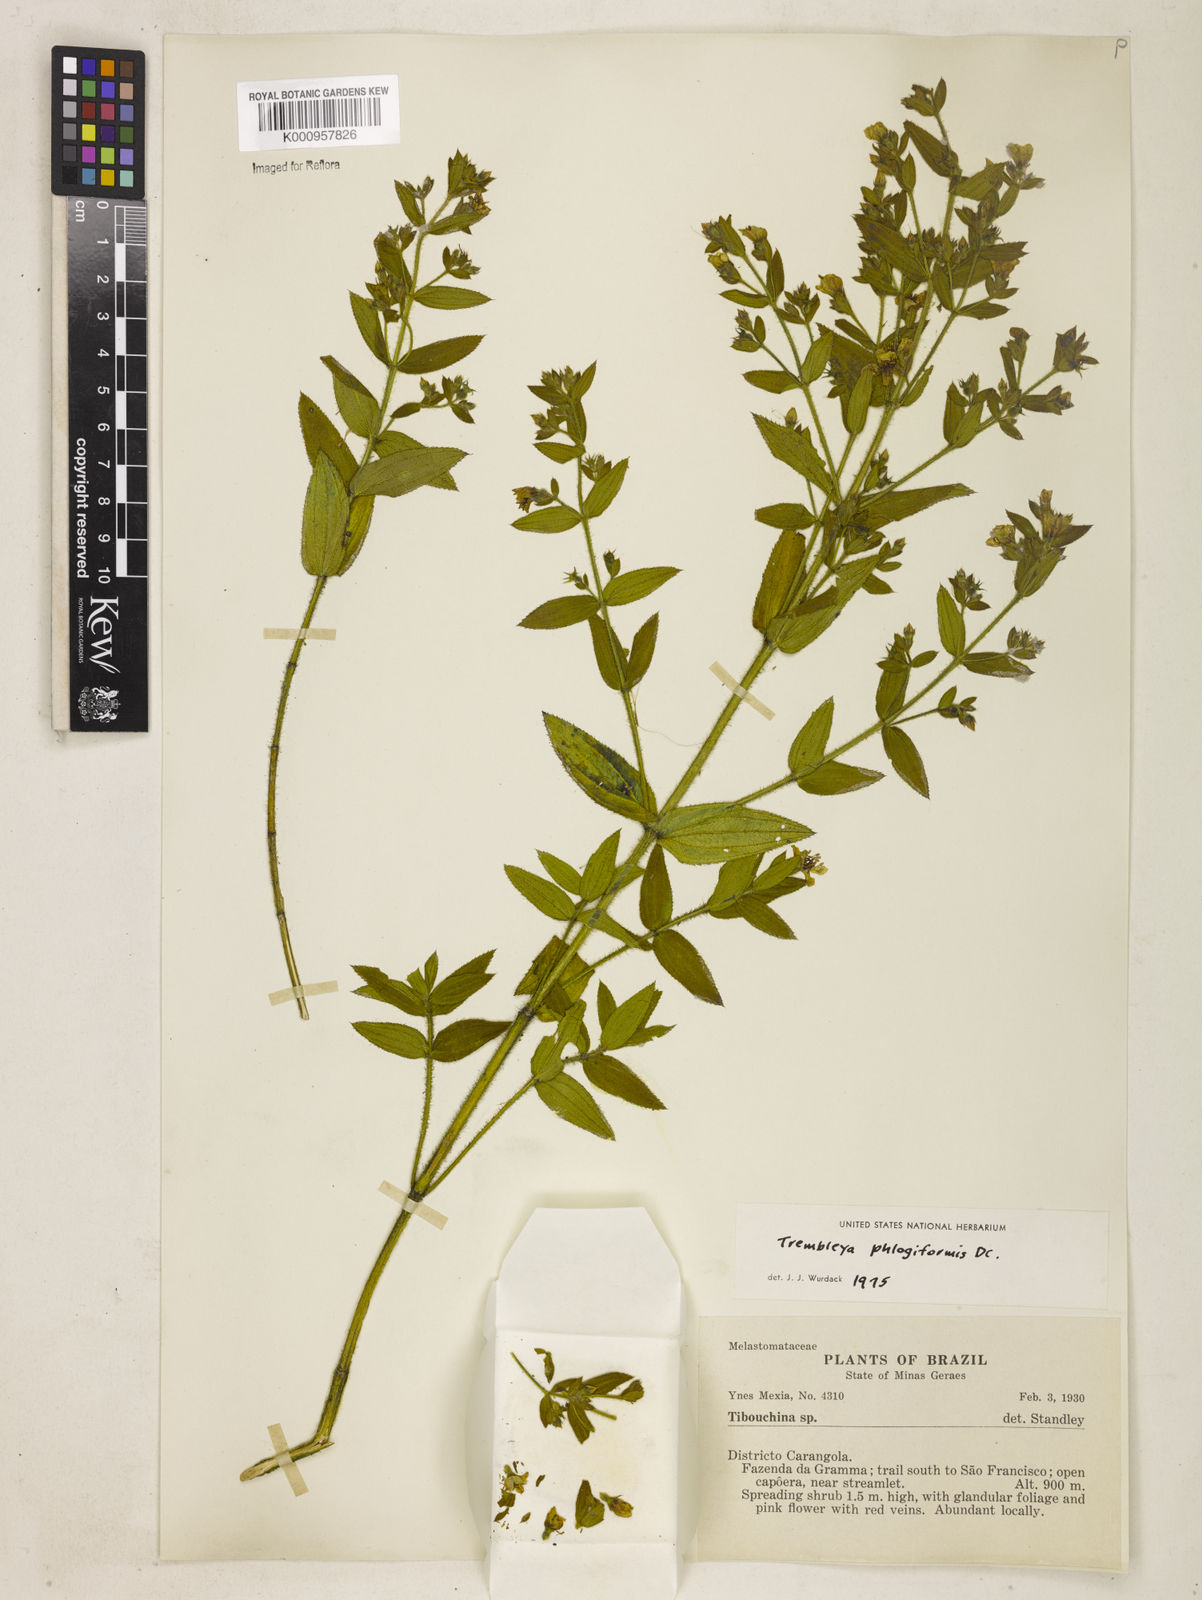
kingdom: Plantae
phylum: Tracheophyta
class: Magnoliopsida
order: Myrtales
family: Melastomataceae
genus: Microlicia
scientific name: Microlicia phlogiformis
